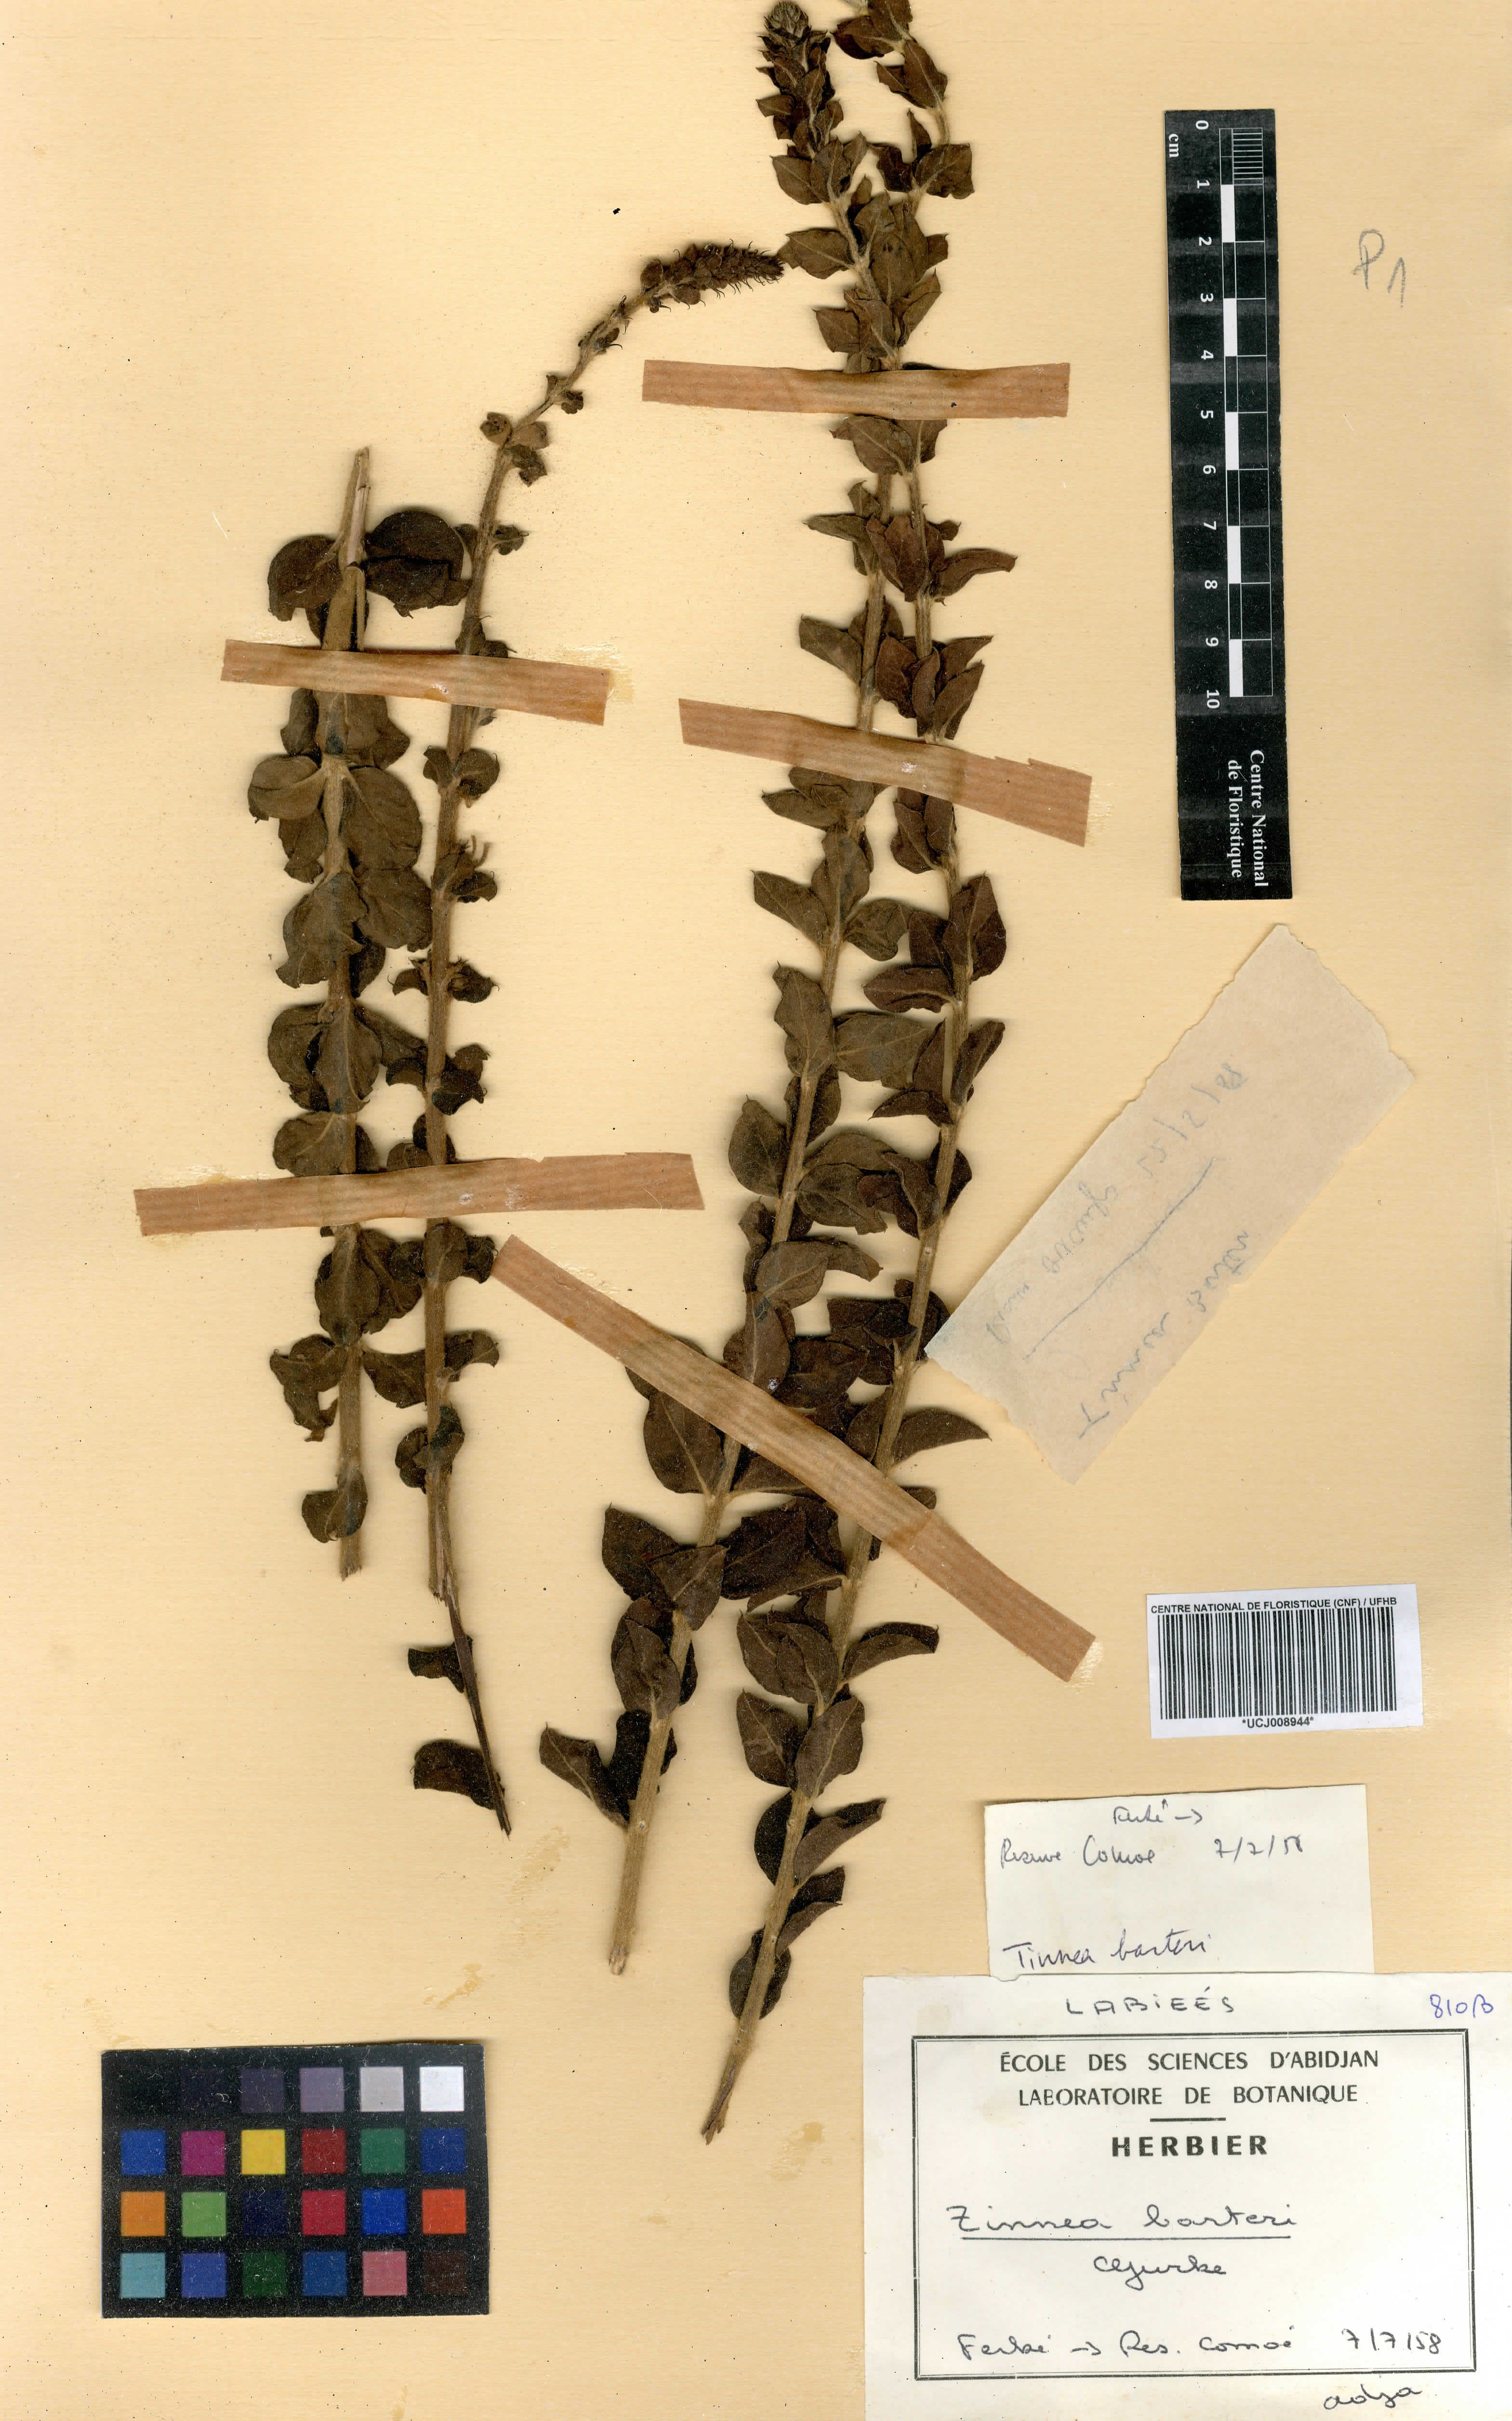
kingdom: Plantae
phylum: Tracheophyta
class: Magnoliopsida
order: Lamiales
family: Lamiaceae
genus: Tinnea
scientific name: Tinnea barteri
